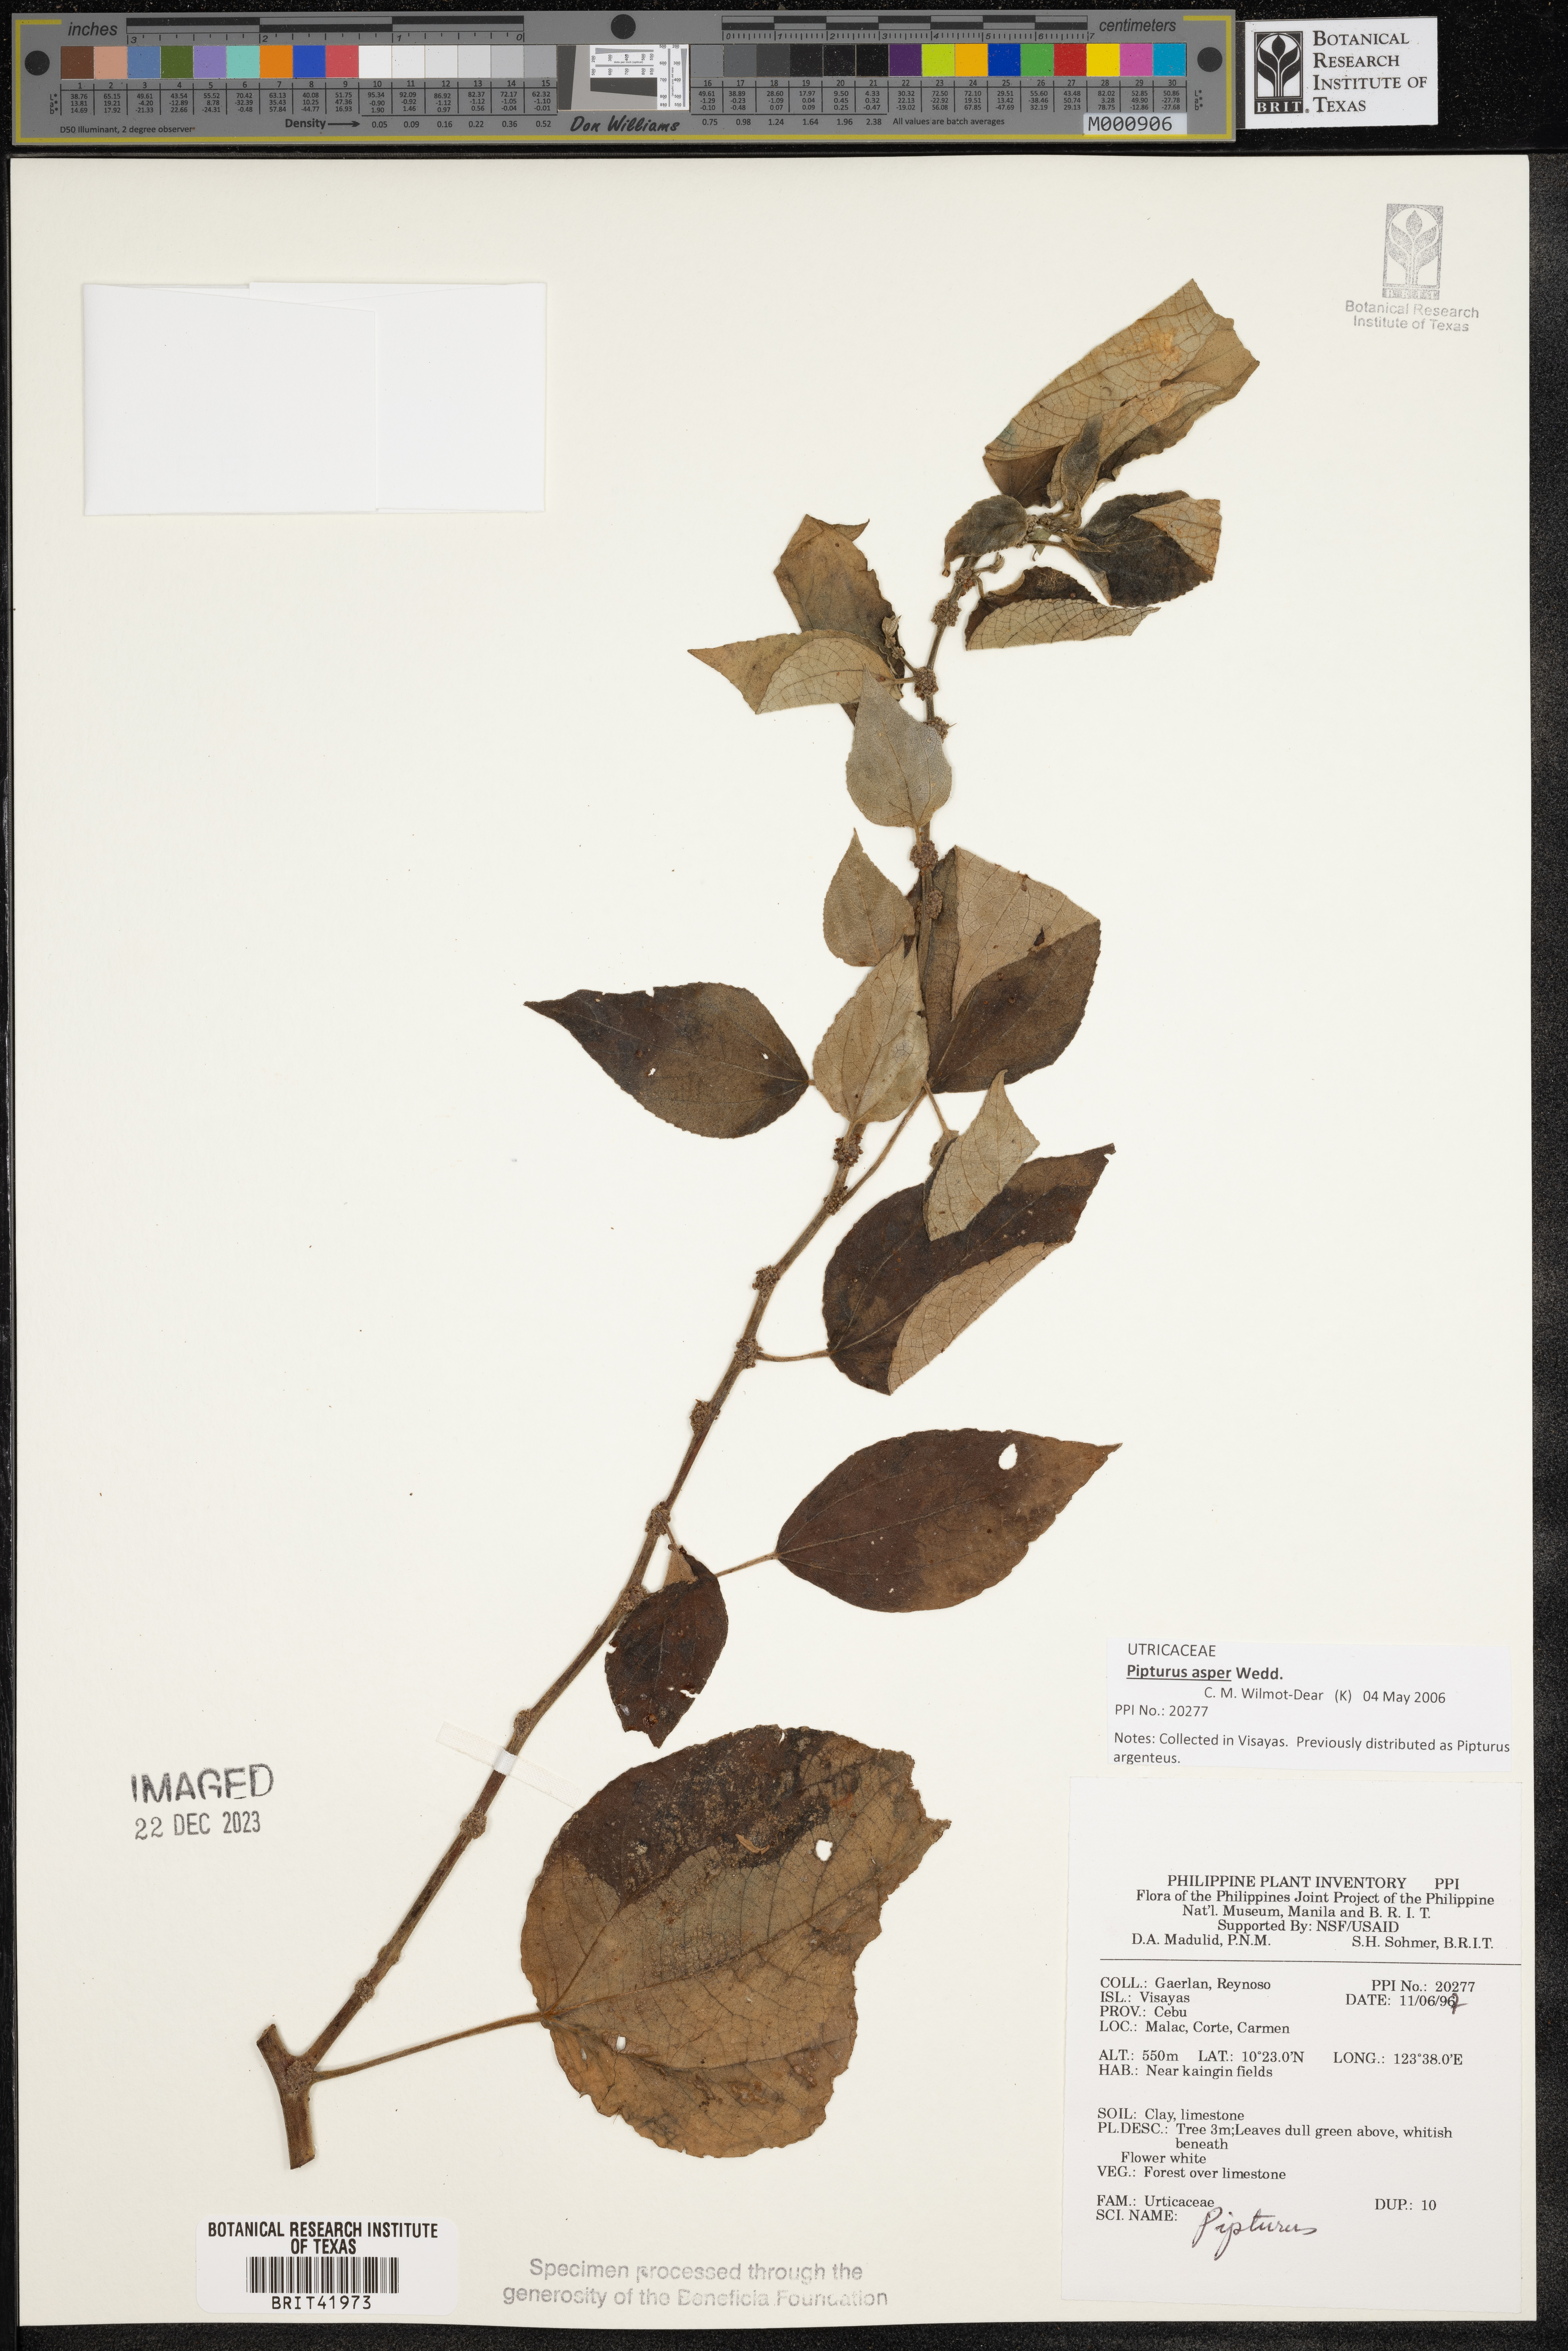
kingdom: Plantae
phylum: Tracheophyta
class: Magnoliopsida
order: Rosales
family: Urticaceae
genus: Pipturus
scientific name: Pipturus
